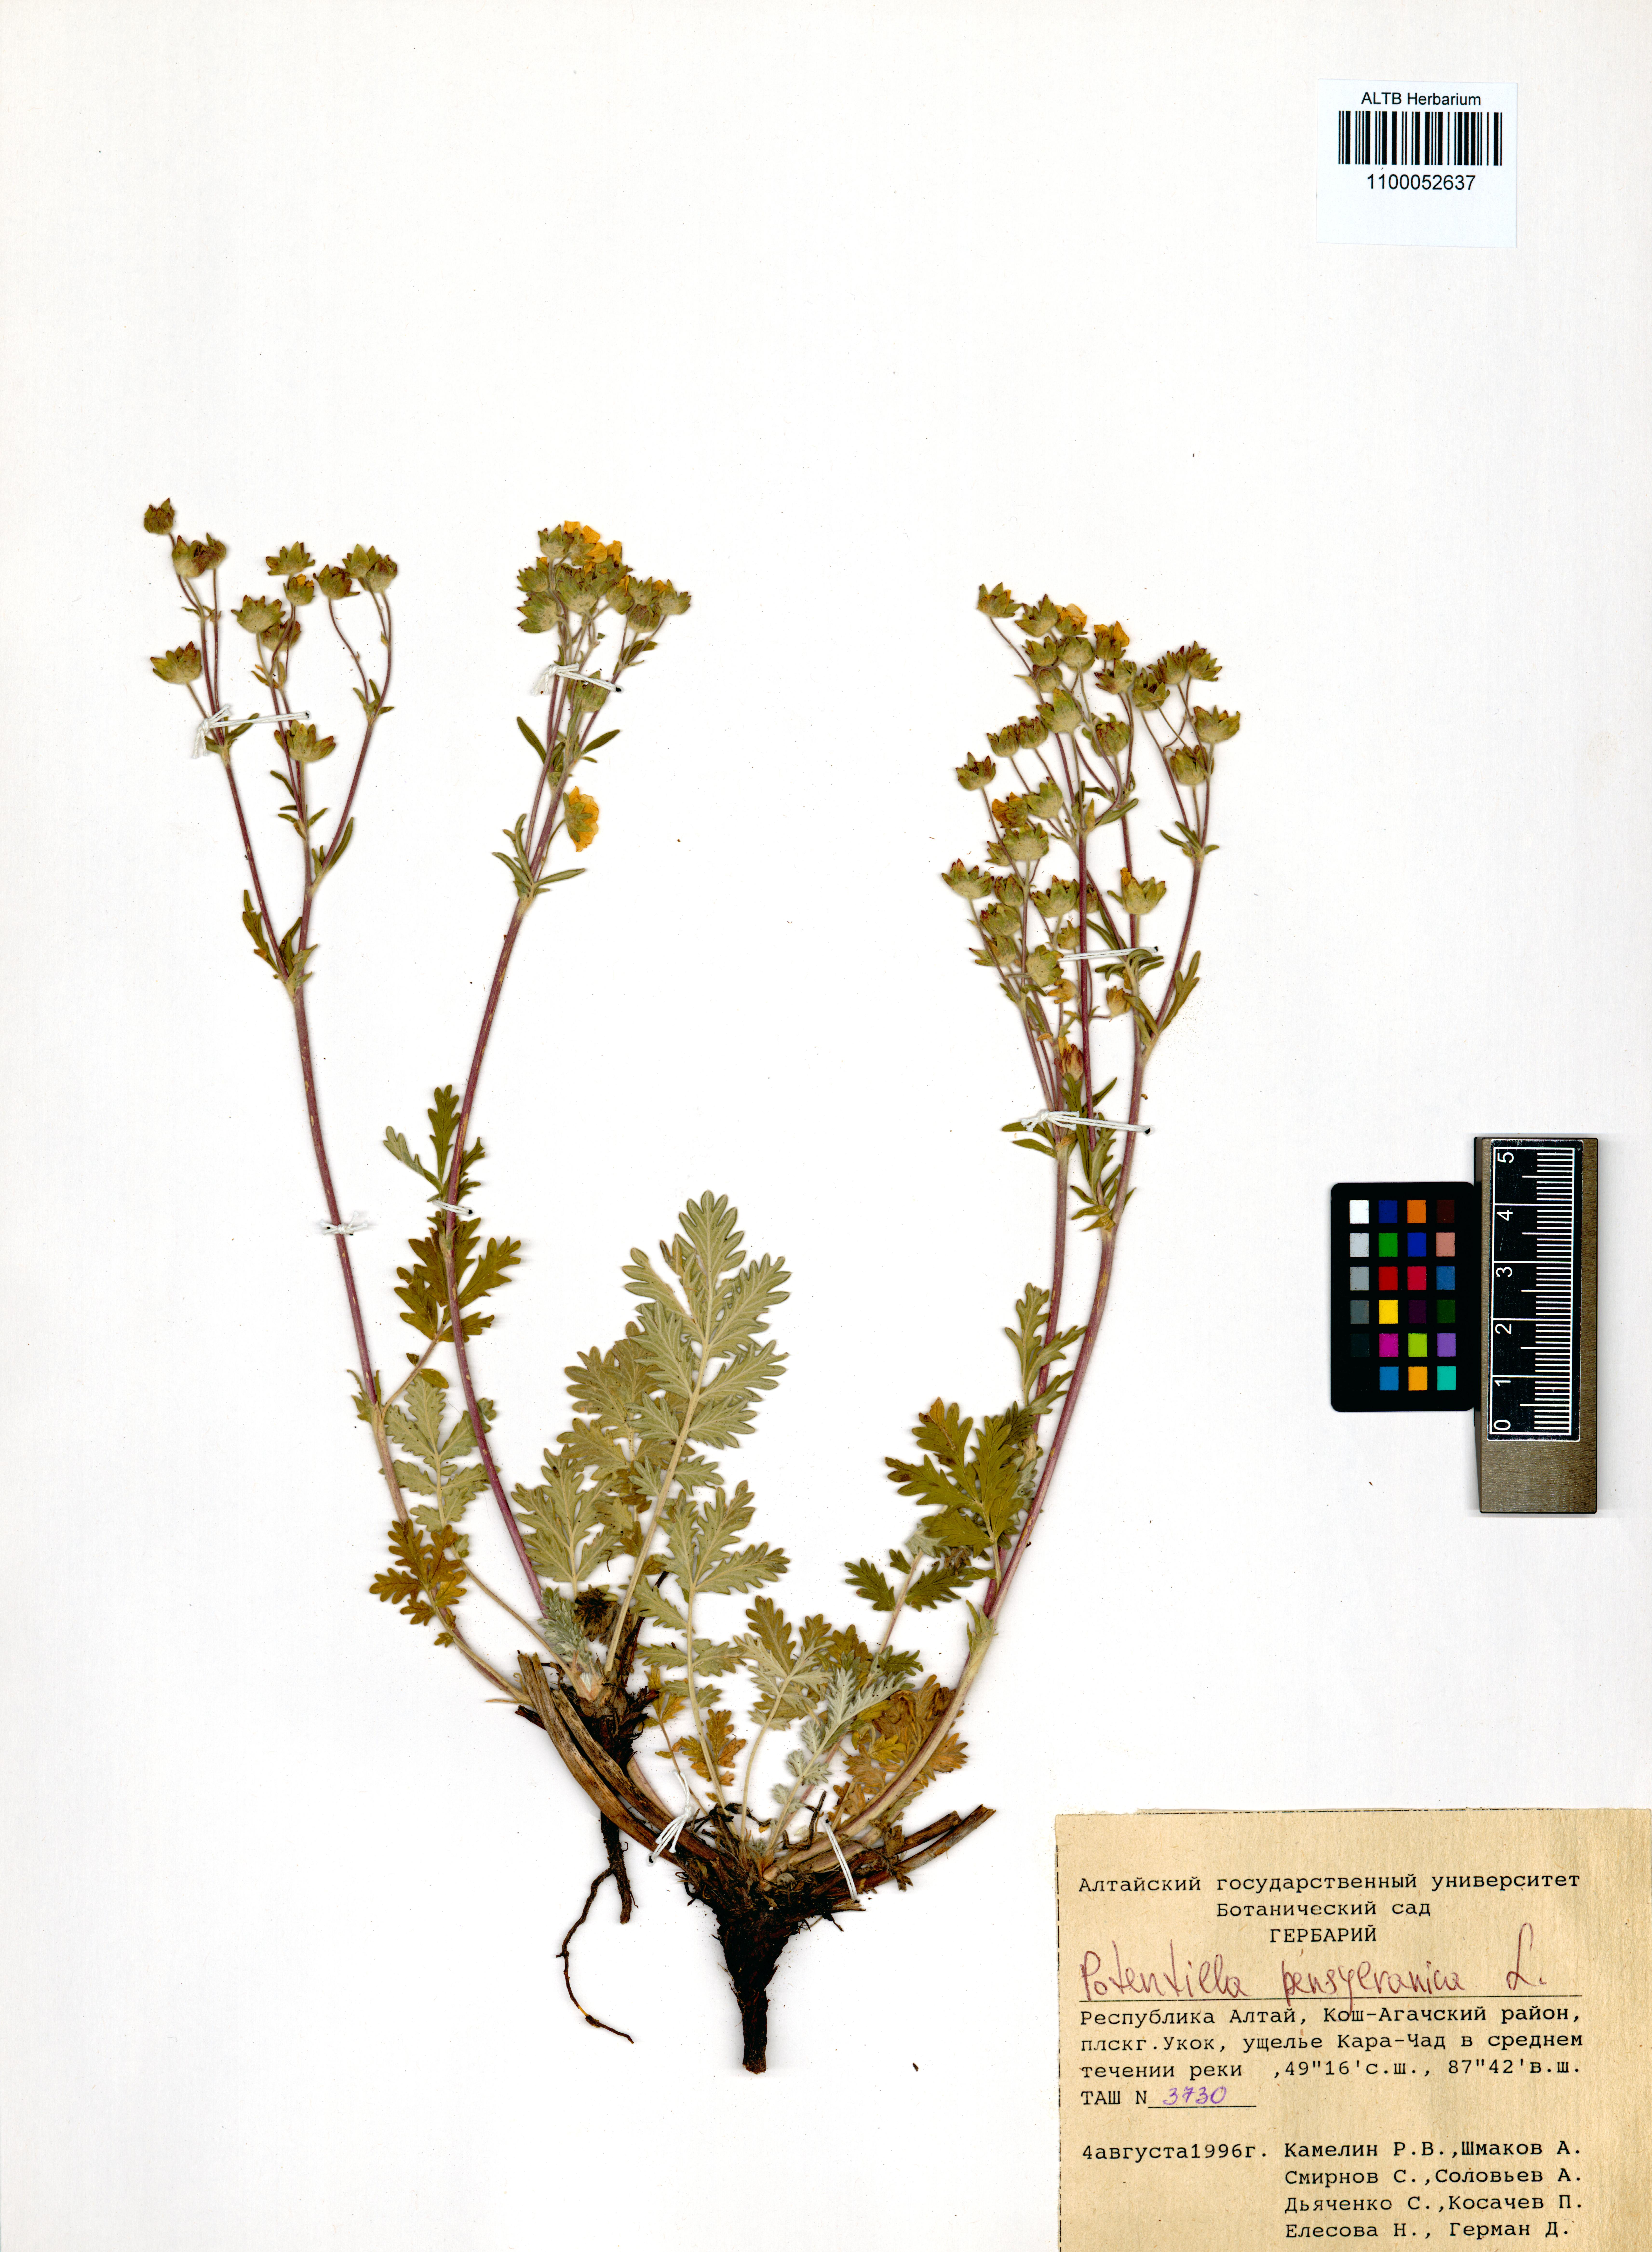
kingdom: Plantae
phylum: Tracheophyta
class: Magnoliopsida
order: Rosales
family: Rosaceae
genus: Potentilla
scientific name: Potentilla pensylvanica
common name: Pennsylvania cinquefoil
